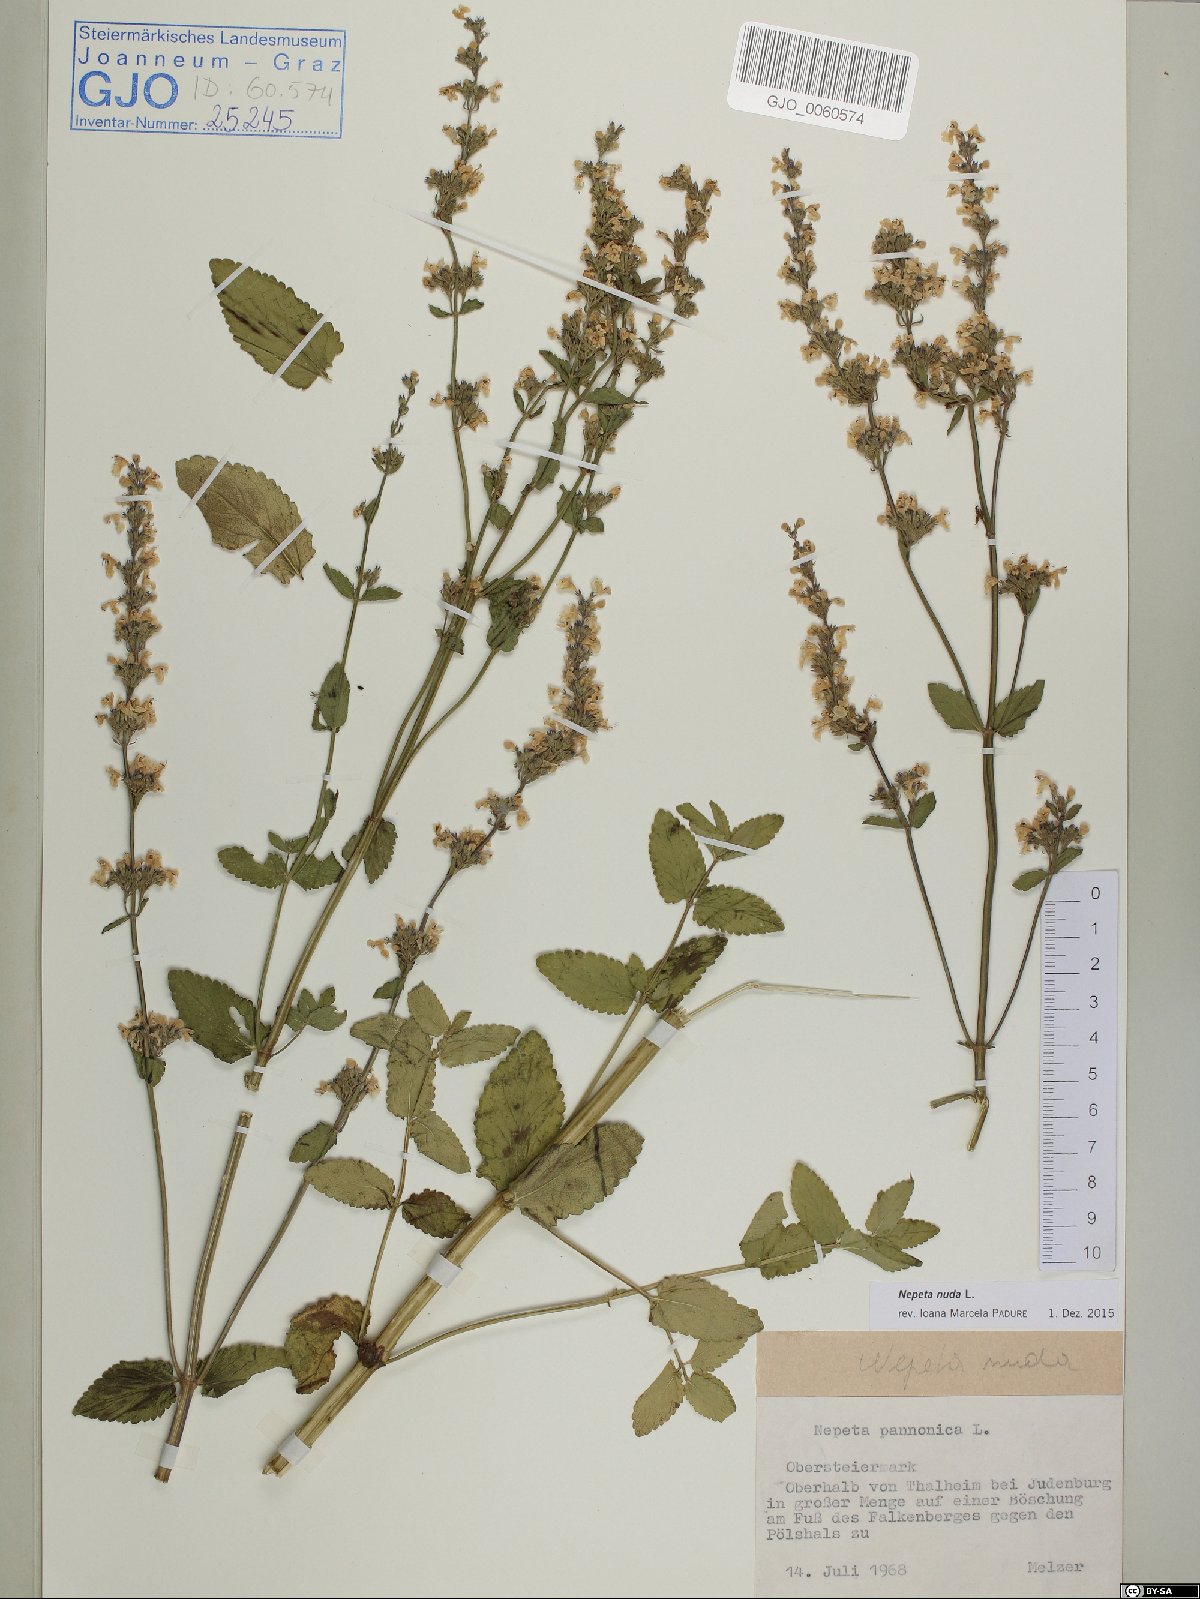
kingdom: Plantae
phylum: Tracheophyta
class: Magnoliopsida
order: Lamiales
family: Lamiaceae
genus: Nepeta
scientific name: Nepeta nuda
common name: Hairless catmint
